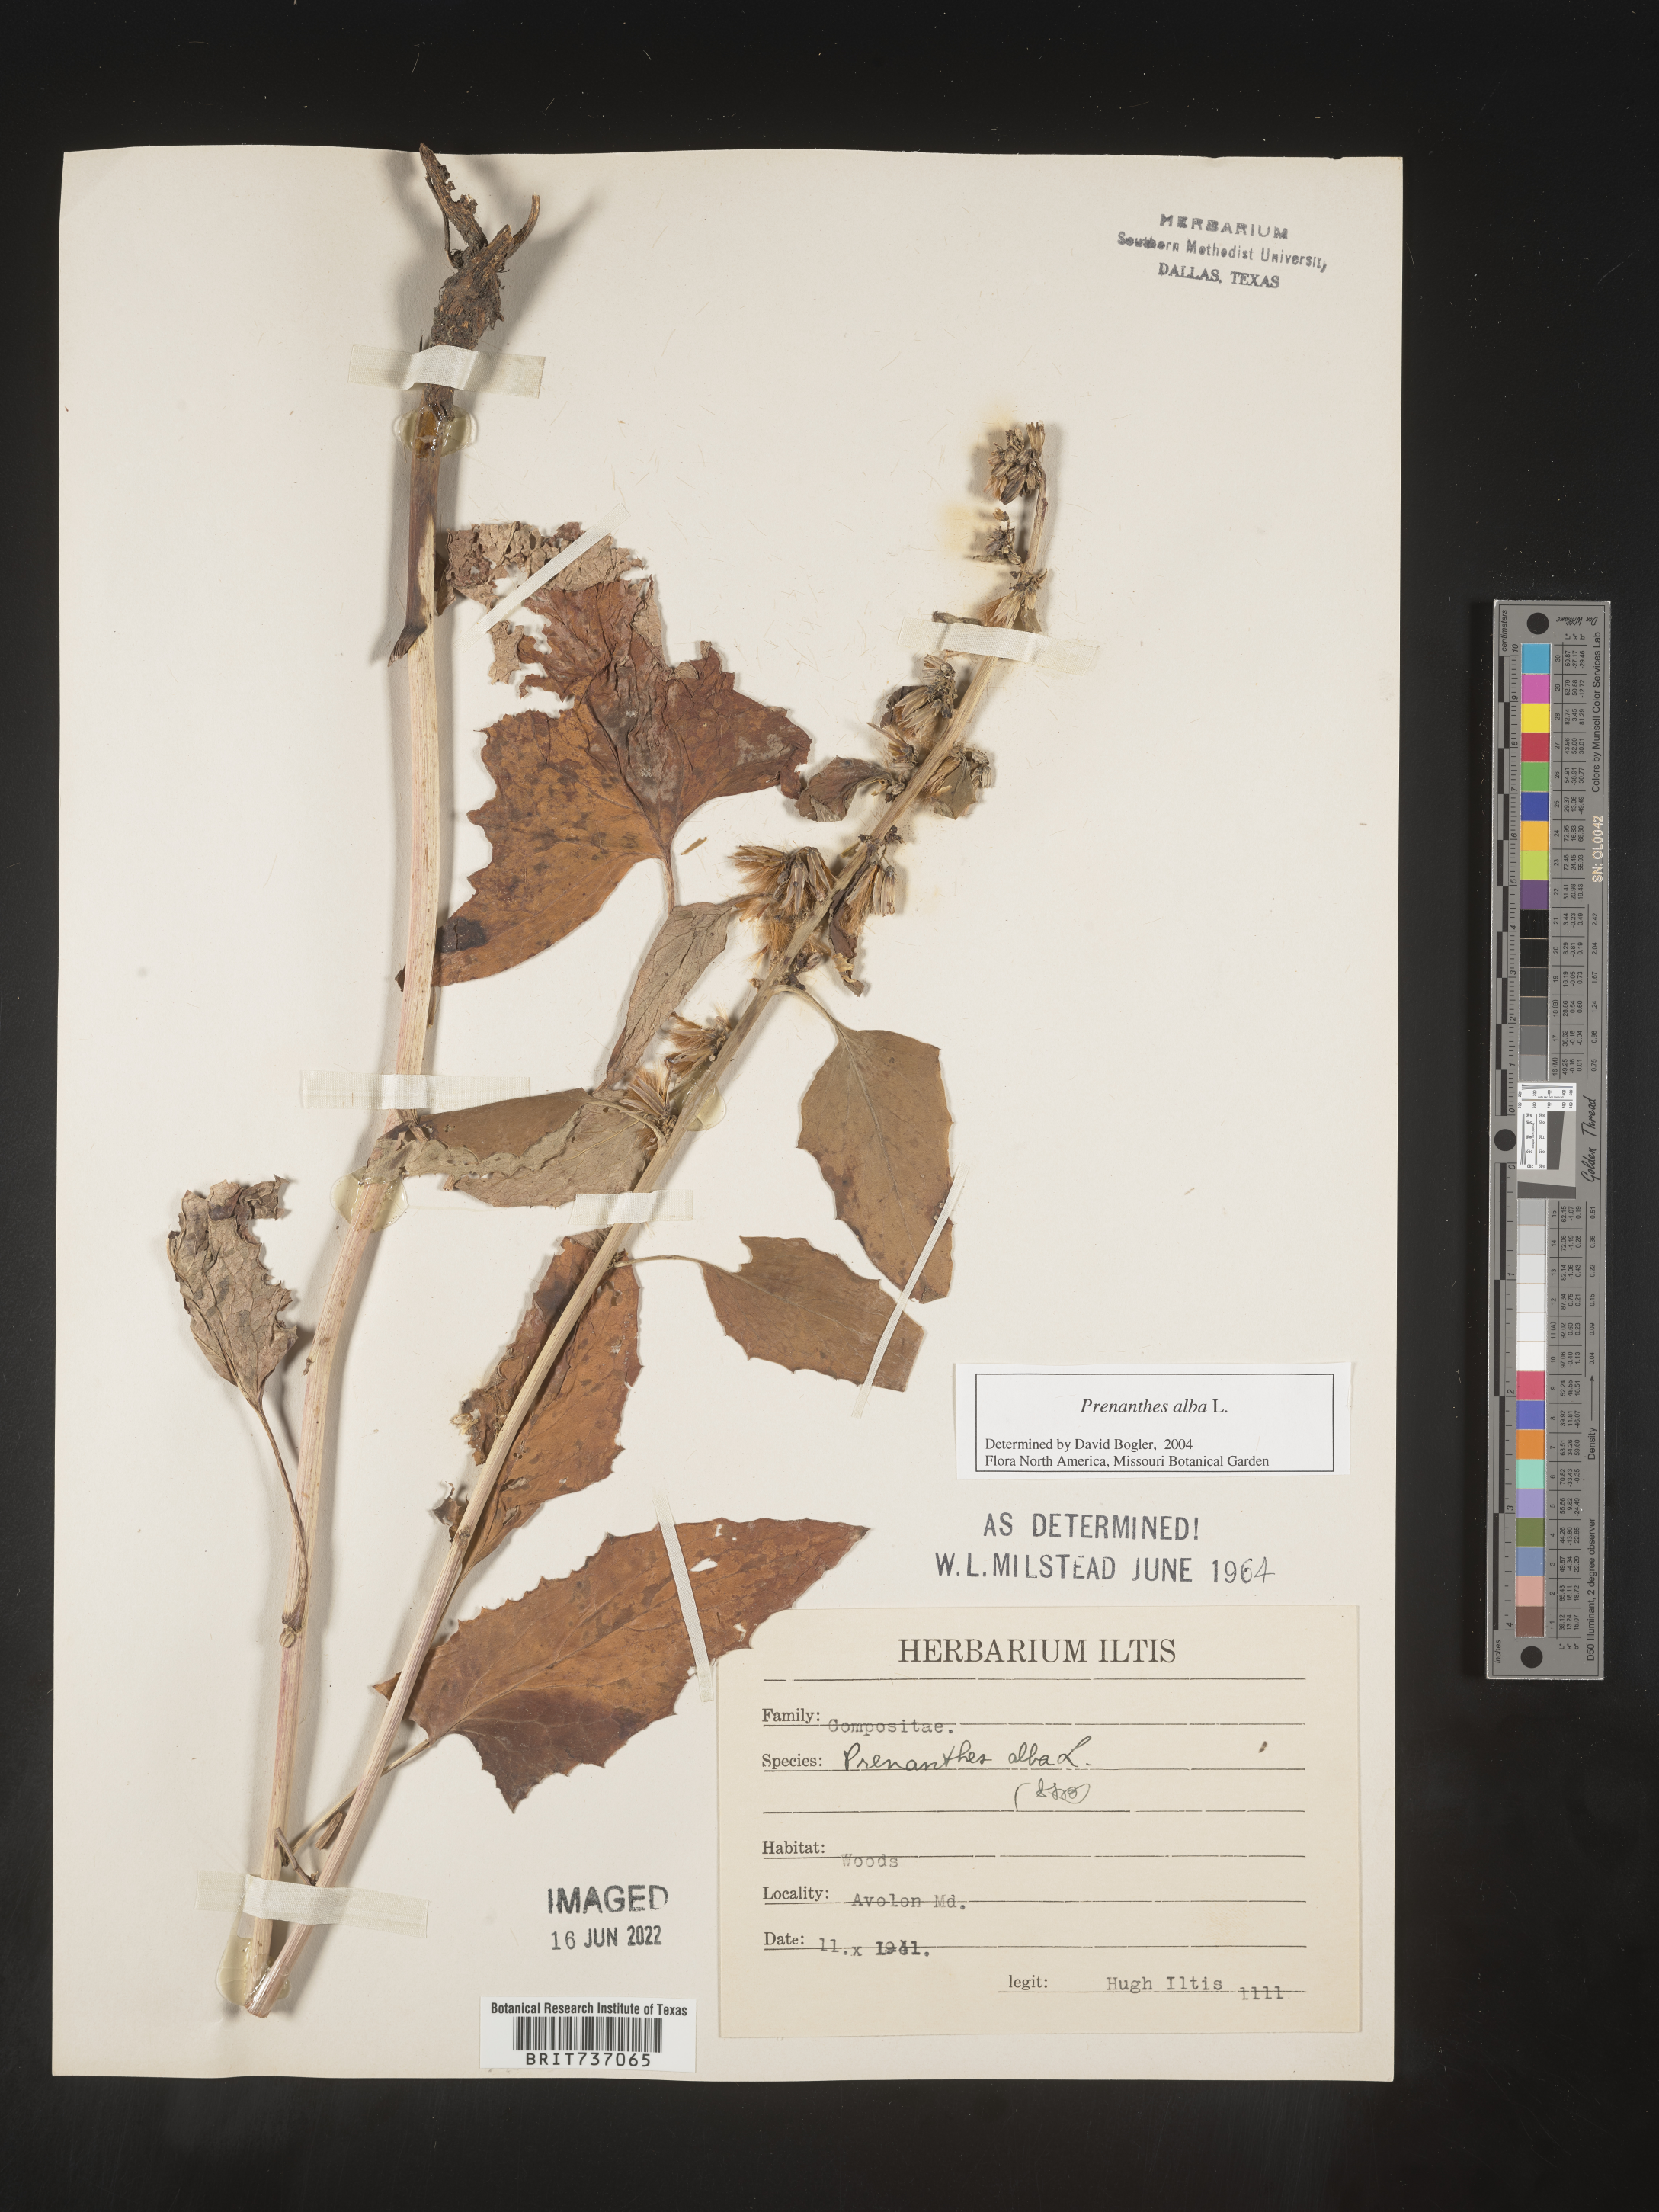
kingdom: Plantae
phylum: Tracheophyta
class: Magnoliopsida
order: Asterales
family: Asteraceae
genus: Nabalus
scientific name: Nabalus albus
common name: White rattlesnakeroot
